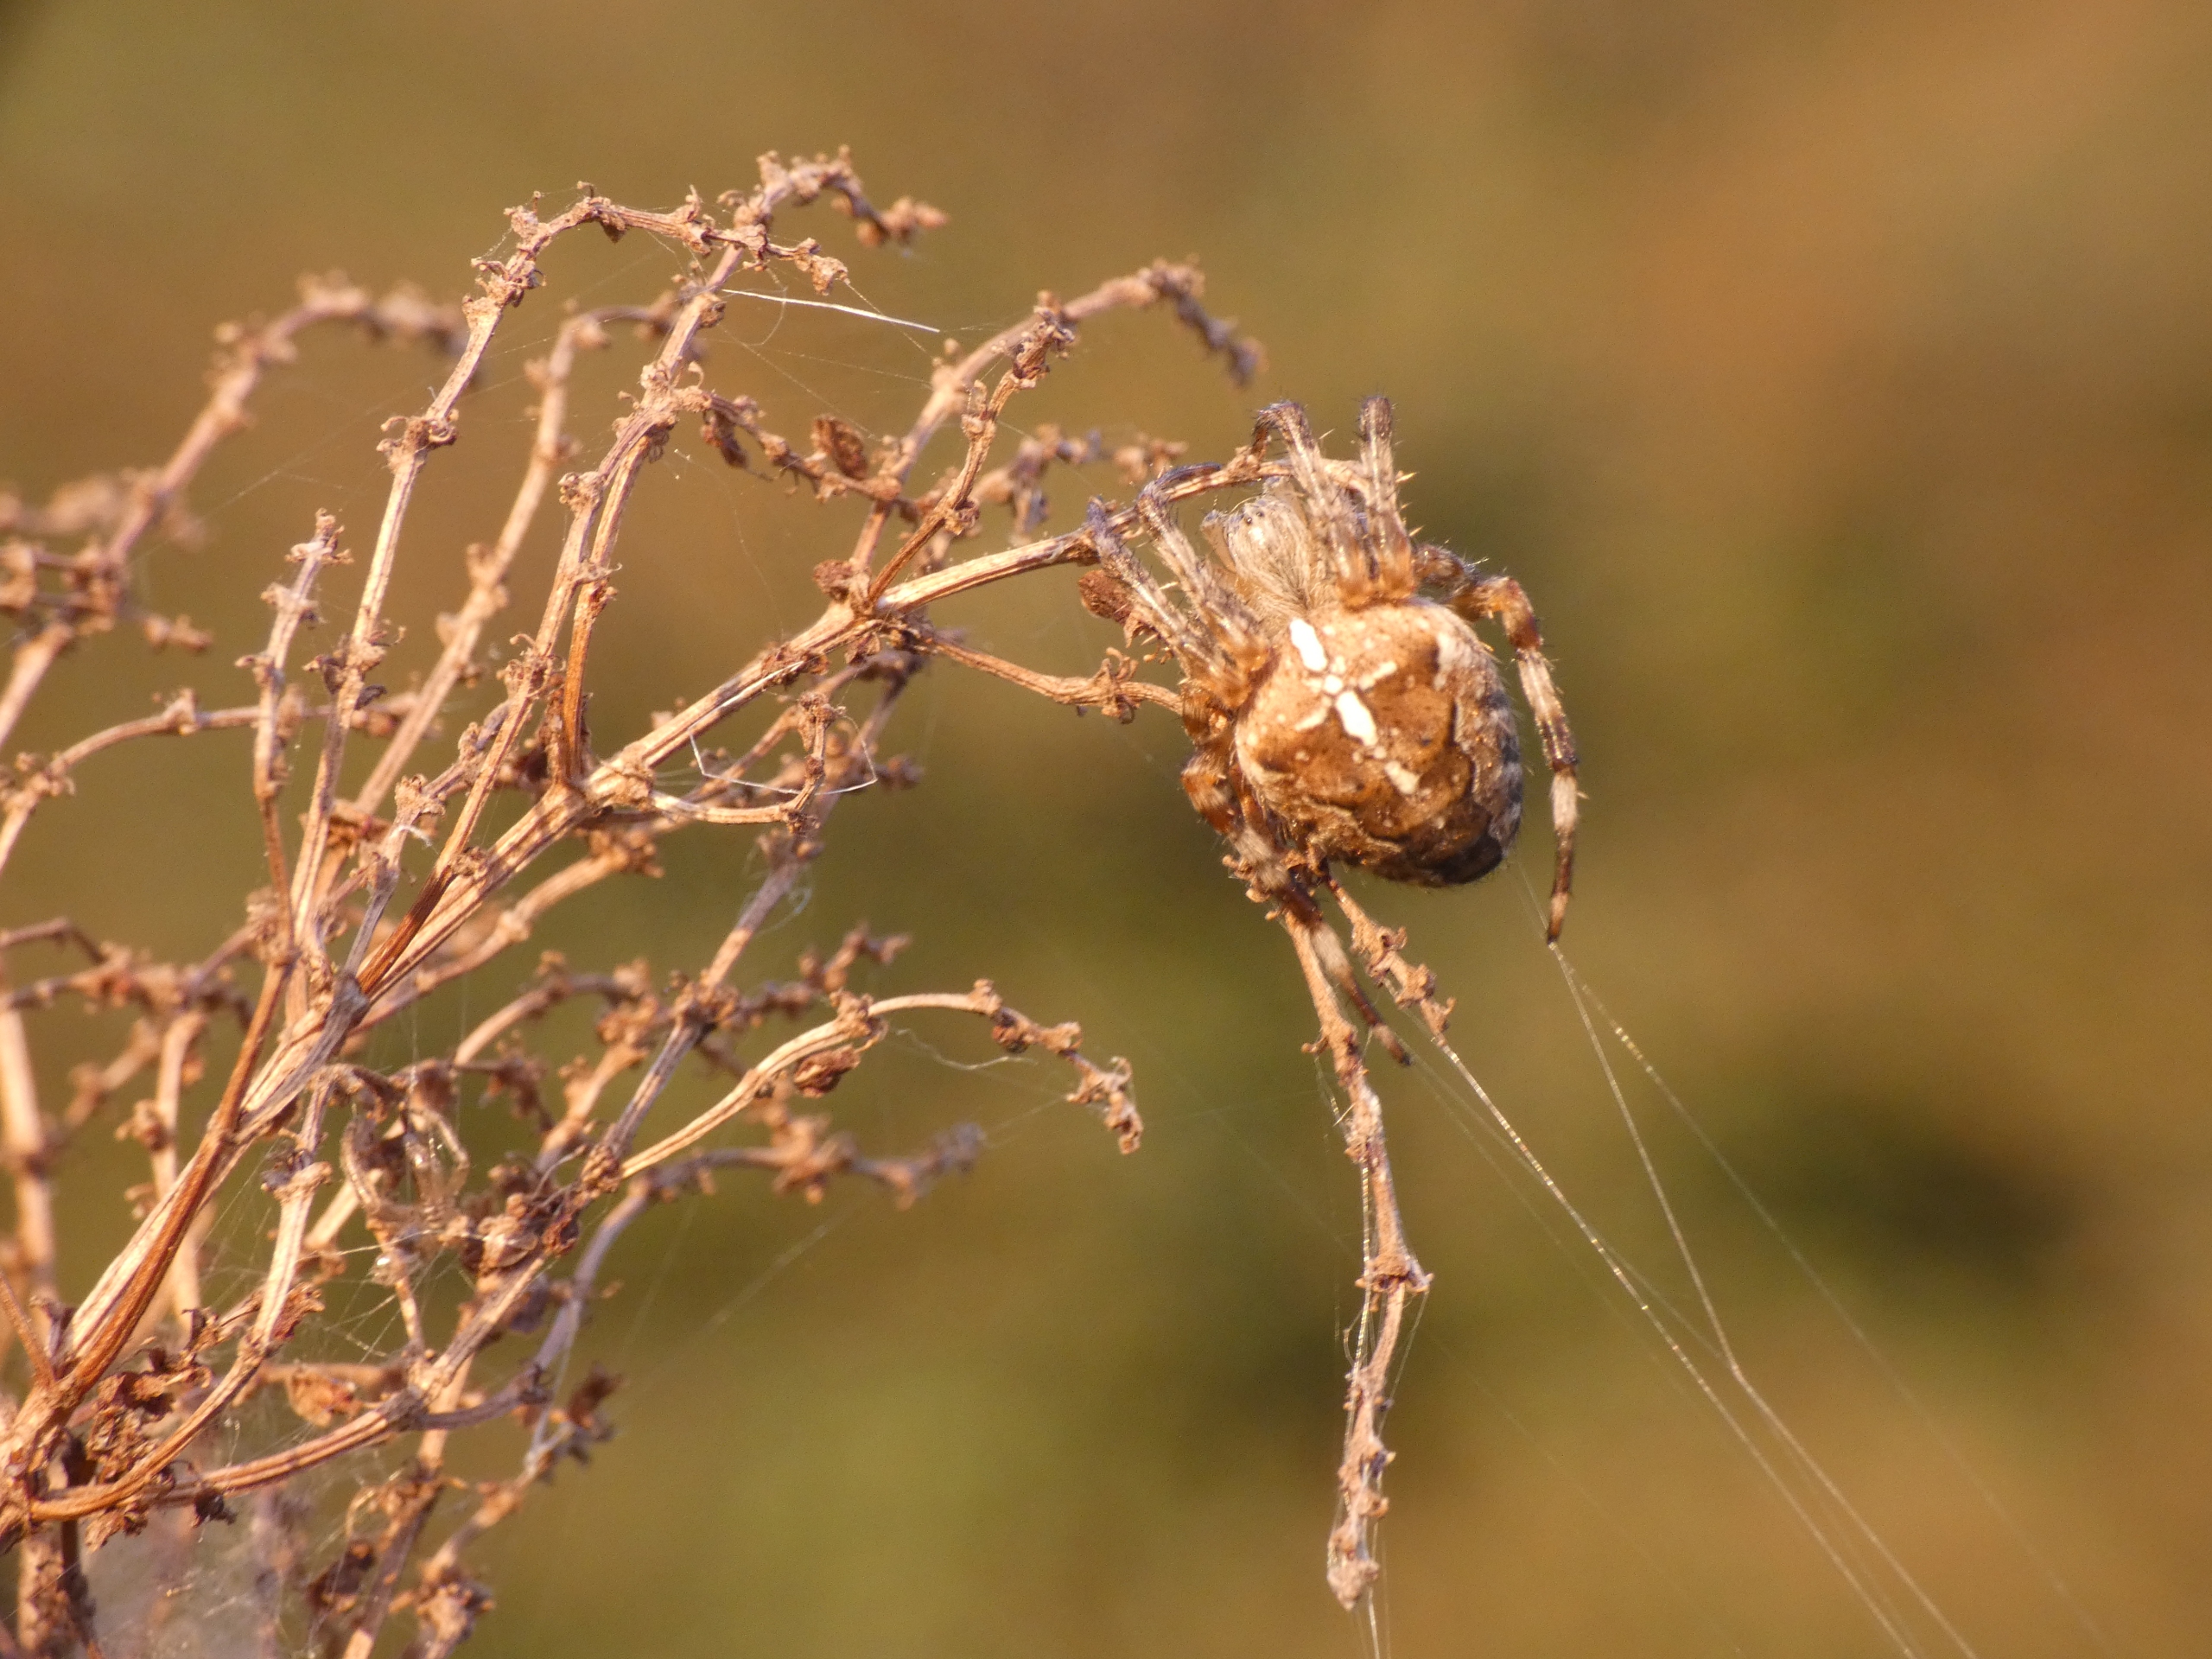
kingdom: Animalia
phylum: Arthropoda
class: Arachnida
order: Araneae
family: Araneidae
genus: Araneus
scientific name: Araneus diadematus
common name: Korsedderkop
